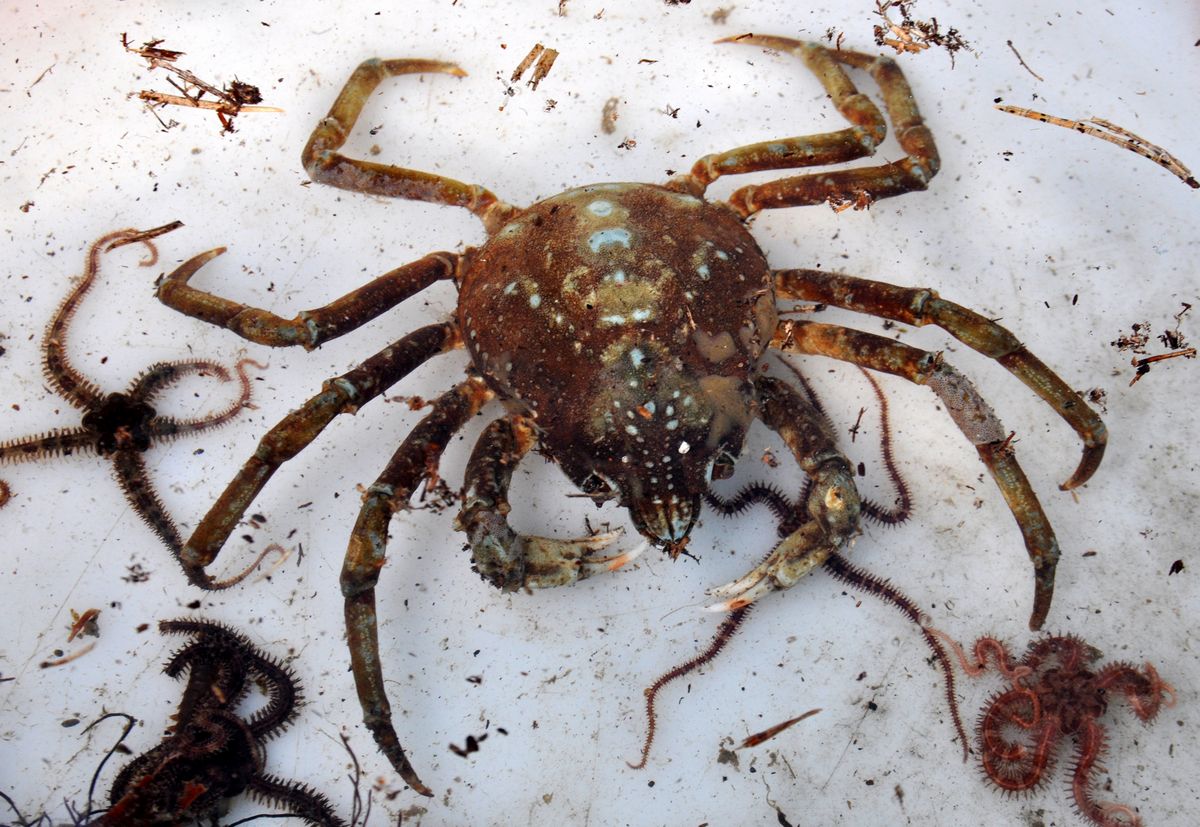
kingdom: Animalia
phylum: Arthropoda
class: Malacostraca
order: Decapoda
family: Oregoniidae
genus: Hyas
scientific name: Hyas araneus
